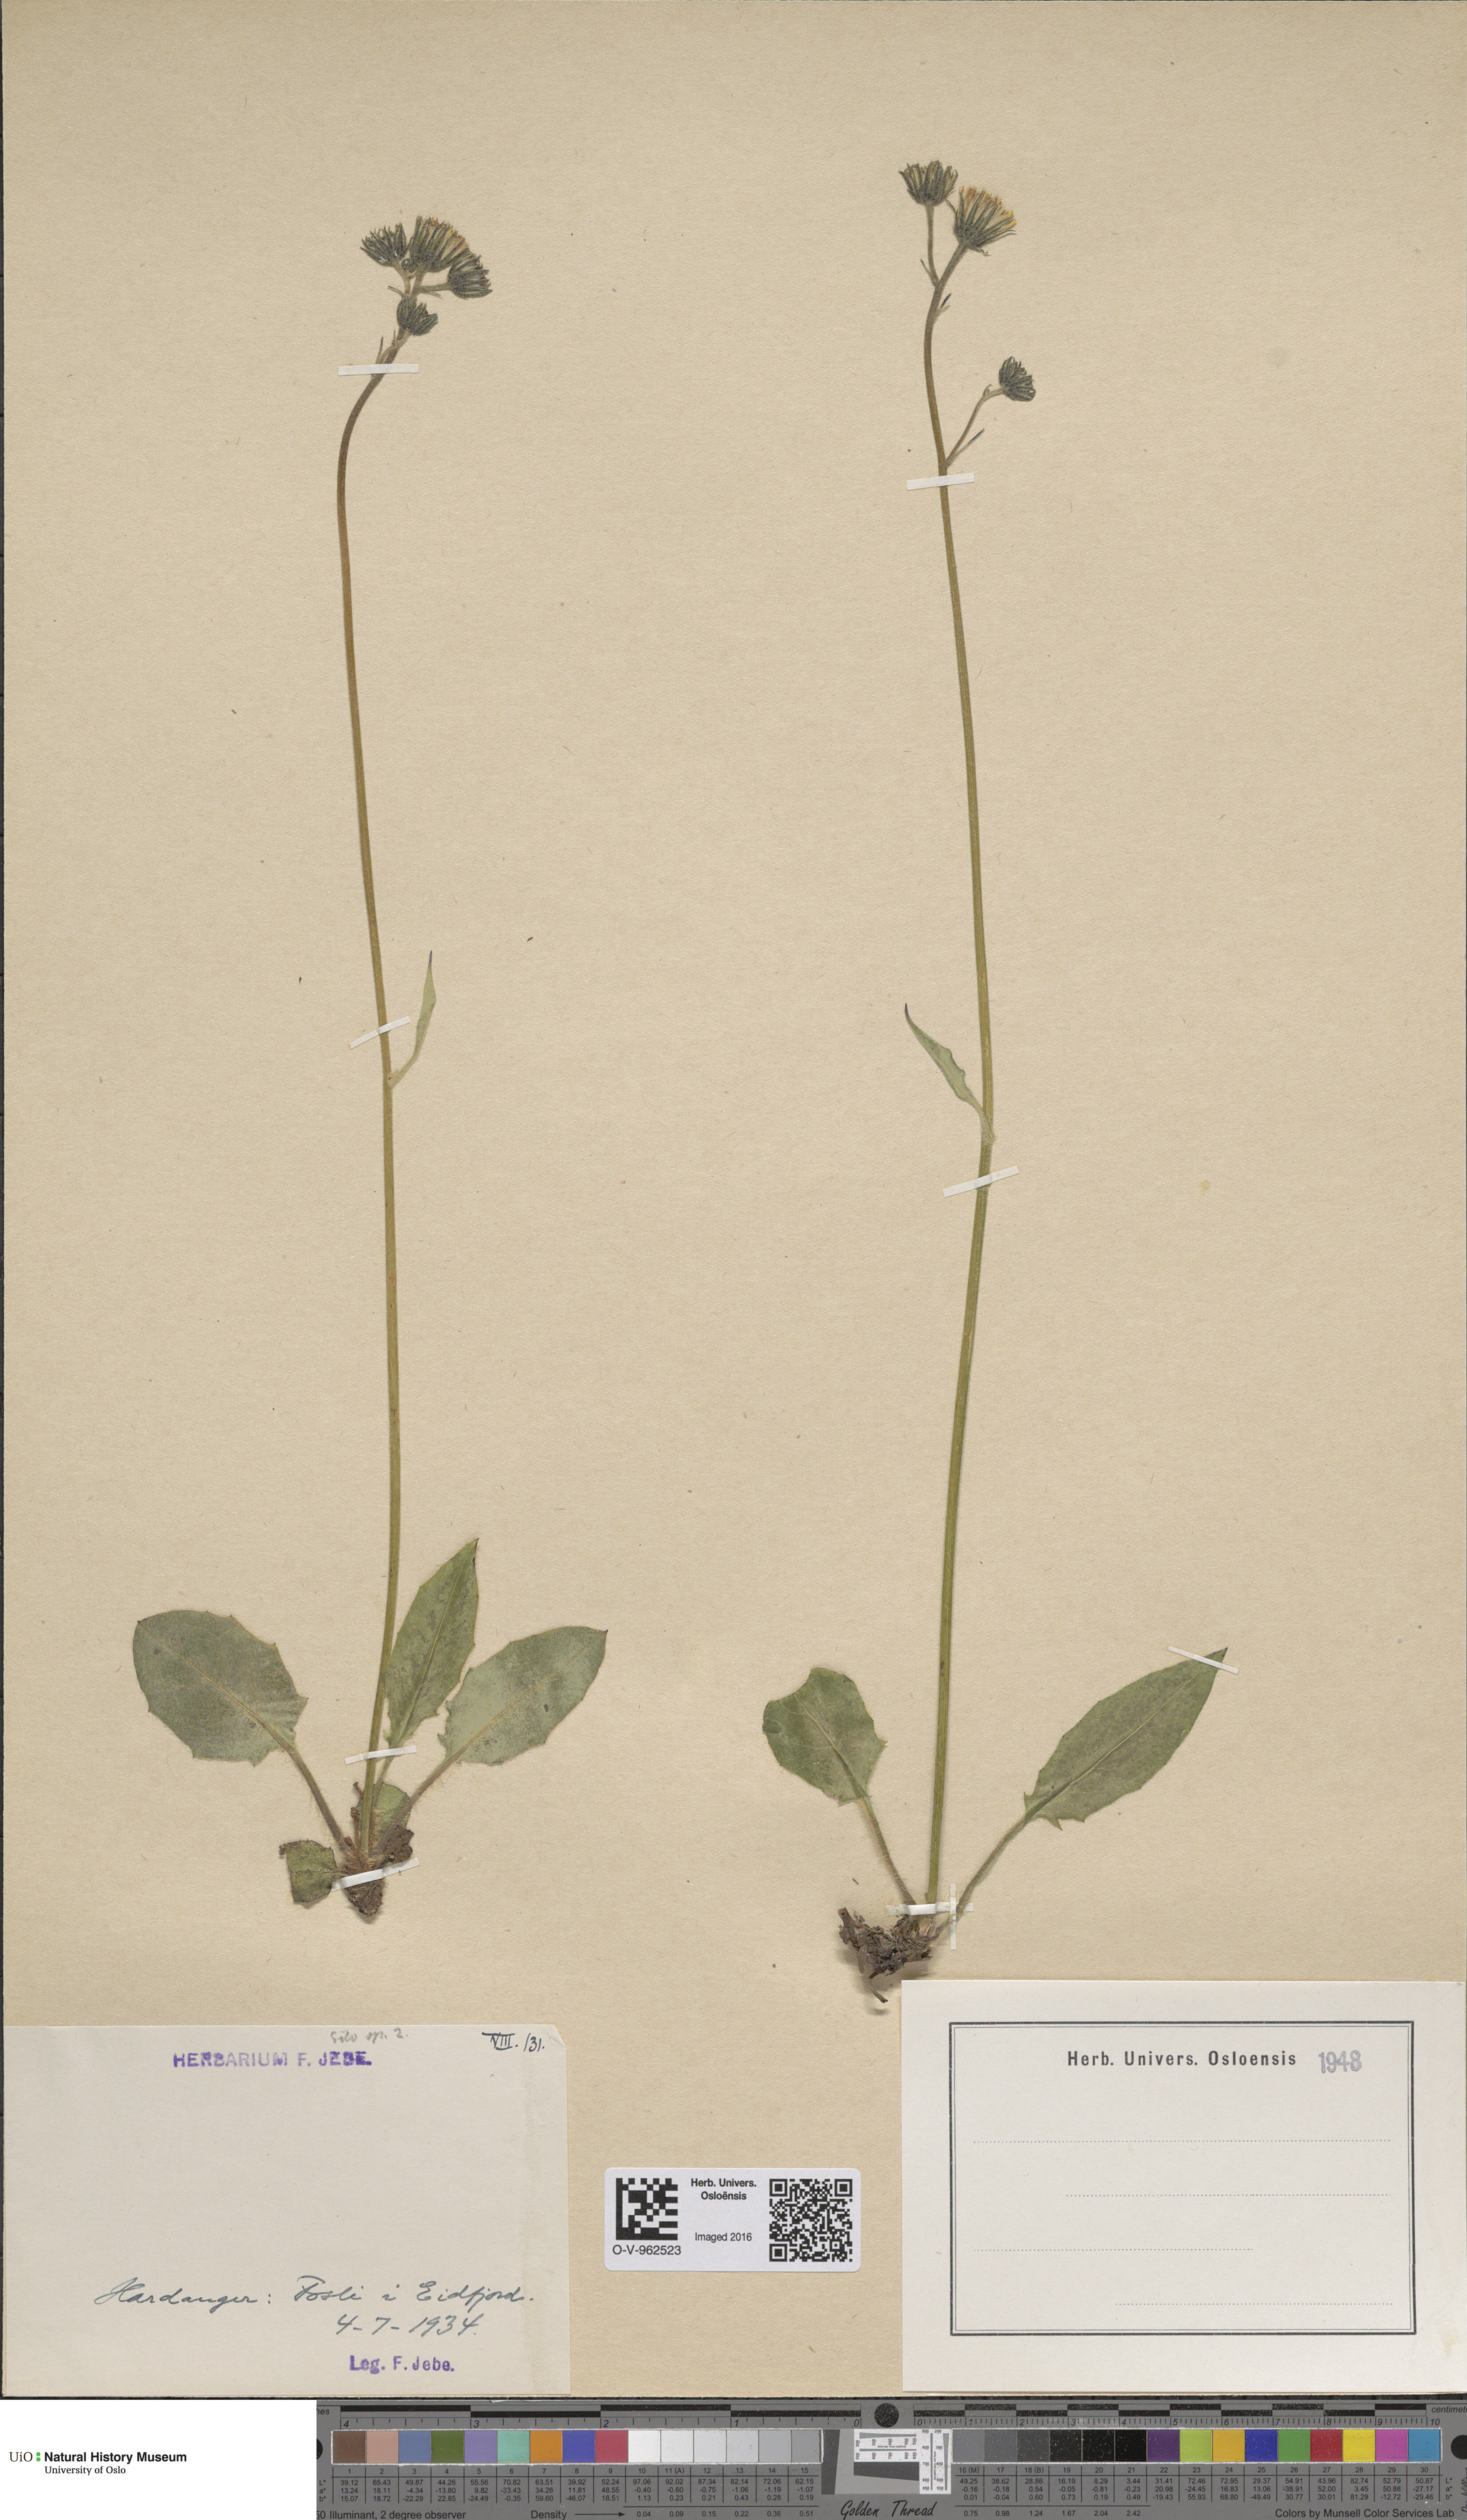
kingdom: Plantae
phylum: Tracheophyta
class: Magnoliopsida
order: Asterales
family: Asteraceae
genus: Hieracium
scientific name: Hieracium
